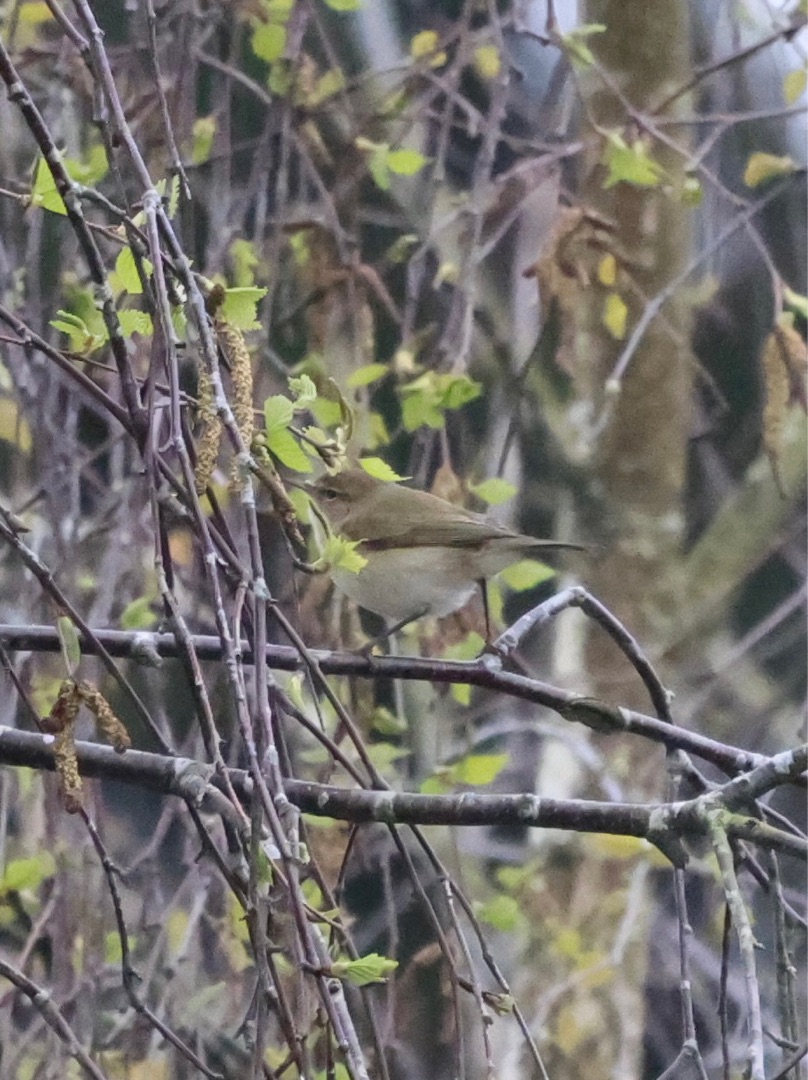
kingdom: Animalia
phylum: Chordata
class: Aves
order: Passeriformes
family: Phylloscopidae
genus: Phylloscopus
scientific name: Phylloscopus collybita
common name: Gransanger
